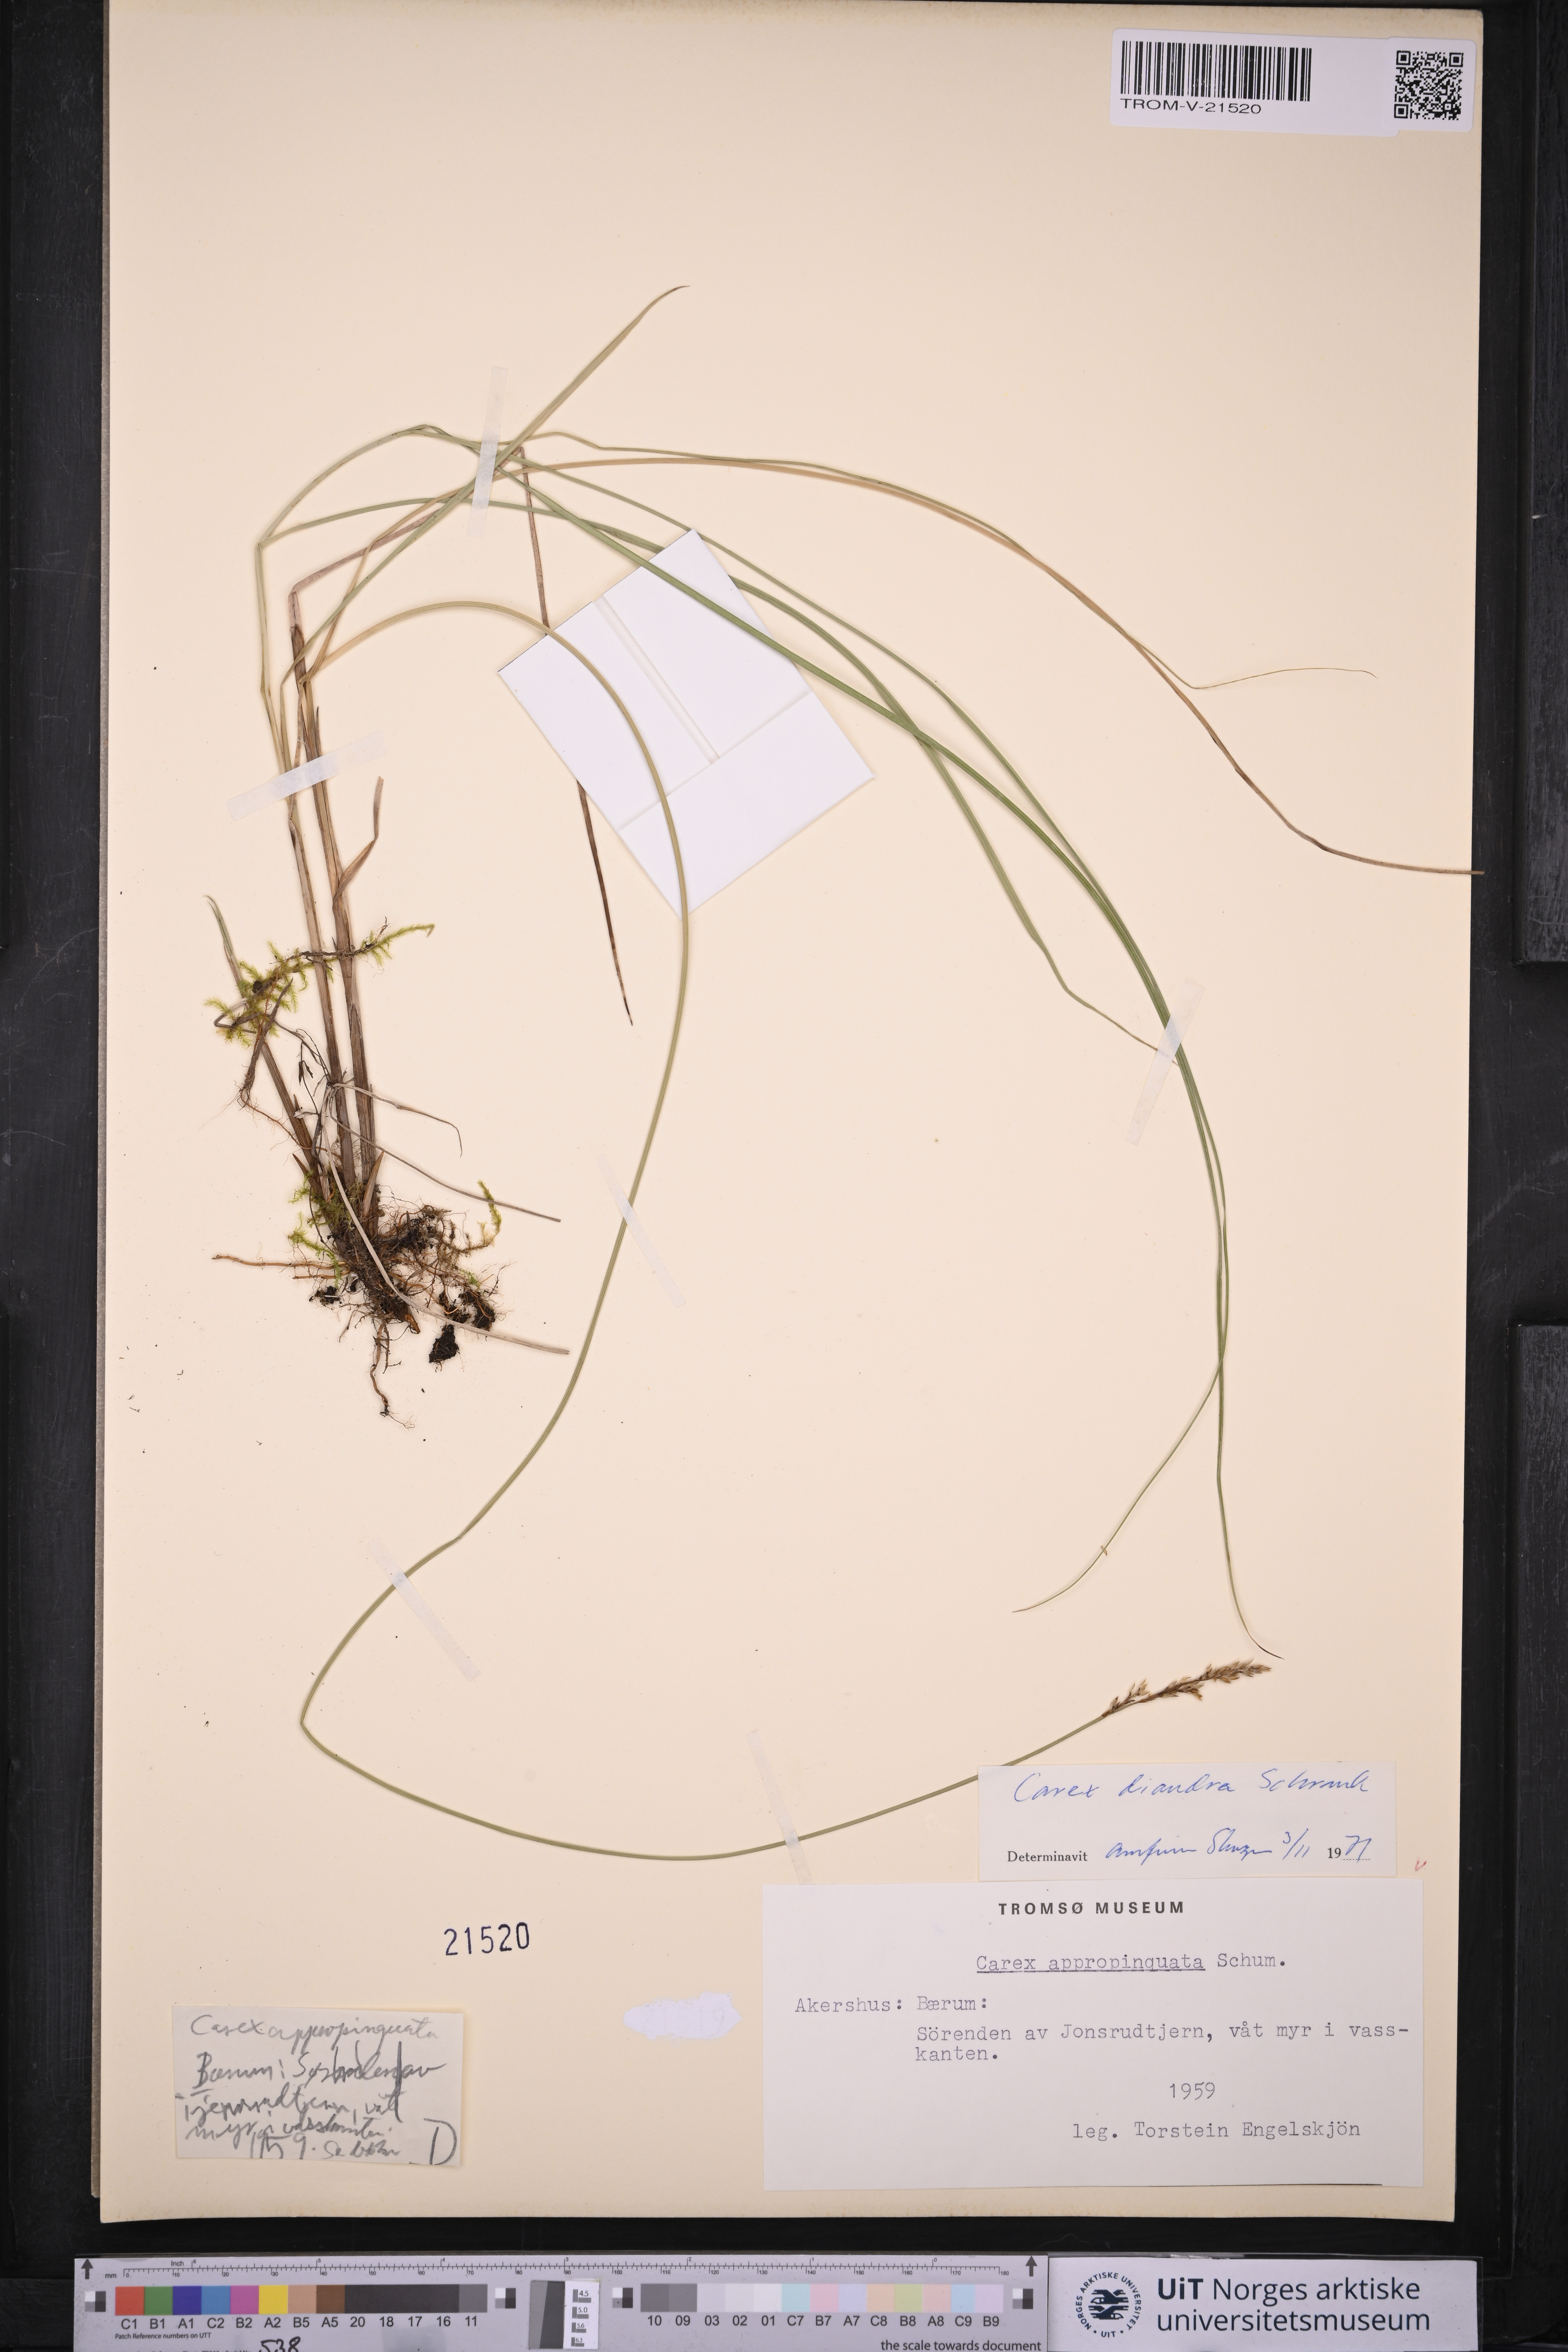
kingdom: Plantae
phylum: Tracheophyta
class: Liliopsida
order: Poales
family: Cyperaceae
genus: Carex
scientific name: Carex diandra
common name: Lesser tussock-sedge
